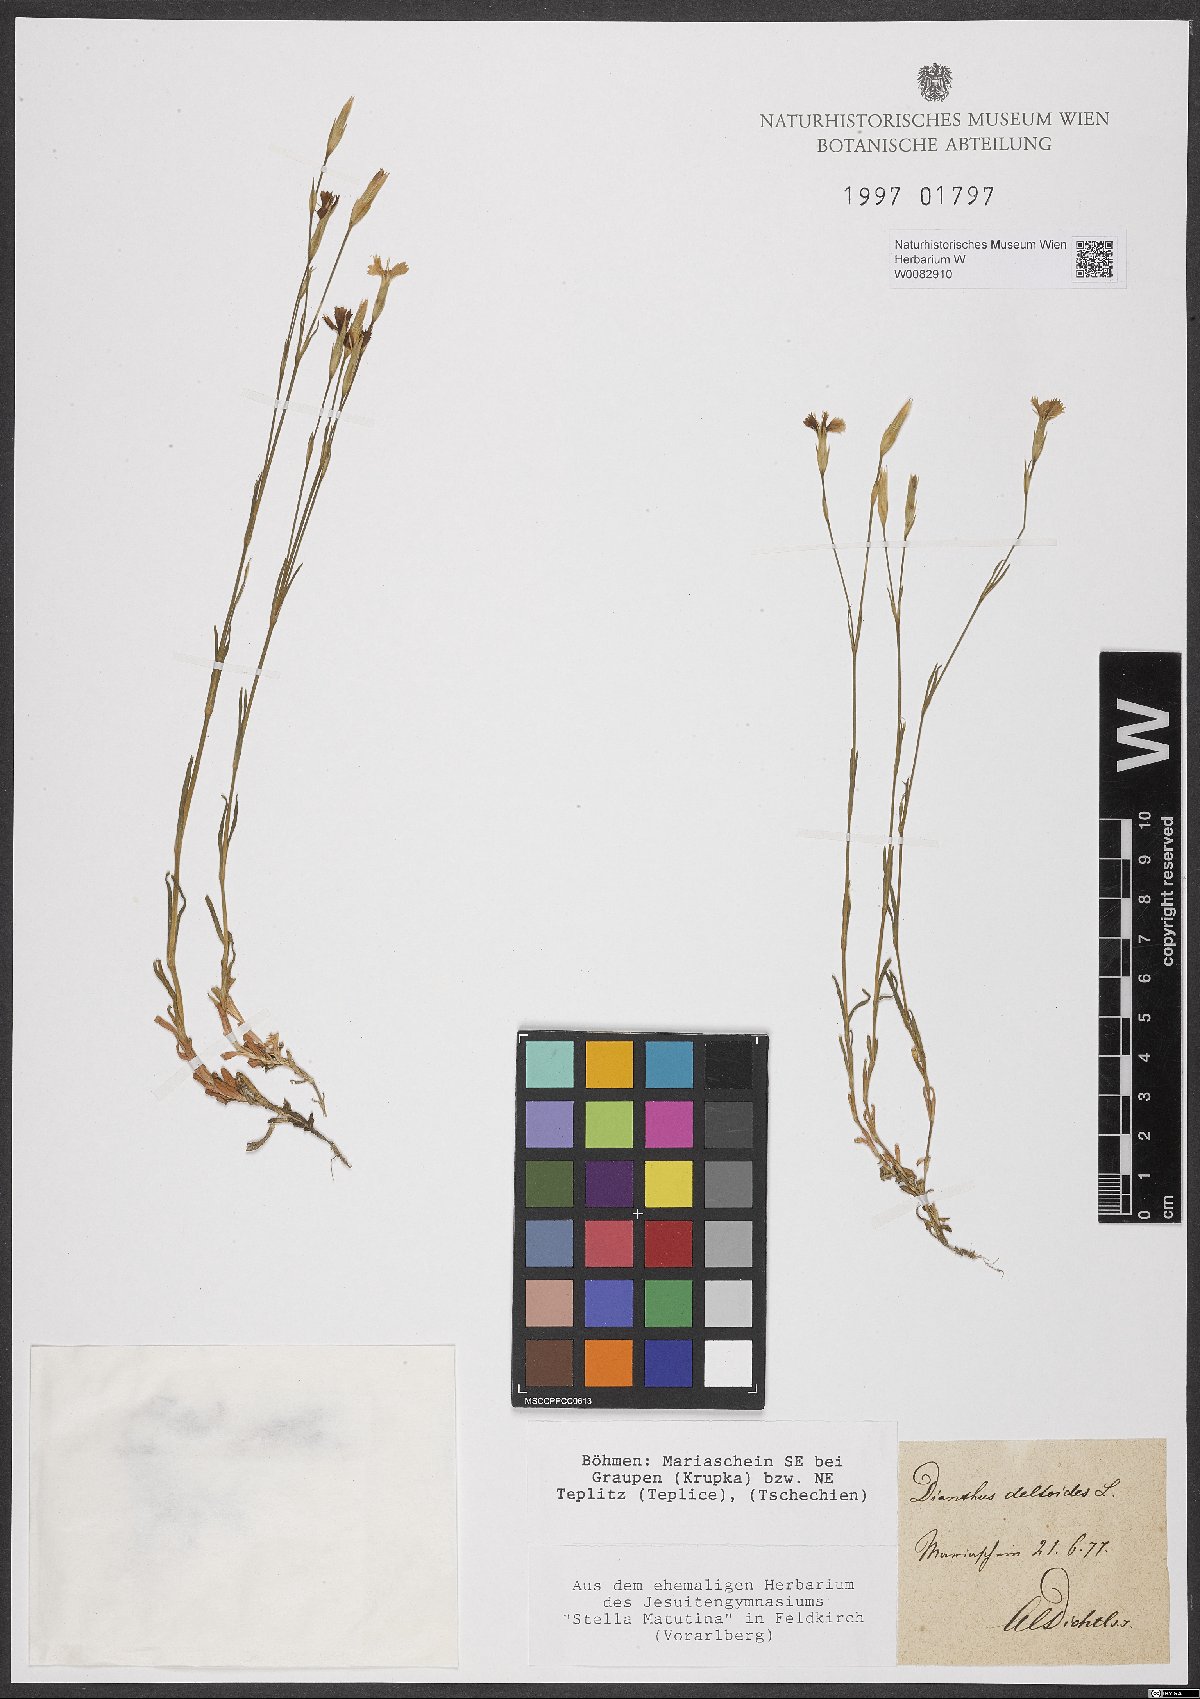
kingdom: Plantae
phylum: Tracheophyta
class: Magnoliopsida
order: Caryophyllales
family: Caryophyllaceae
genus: Dianthus
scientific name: Dianthus deltoides
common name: Maiden pink
